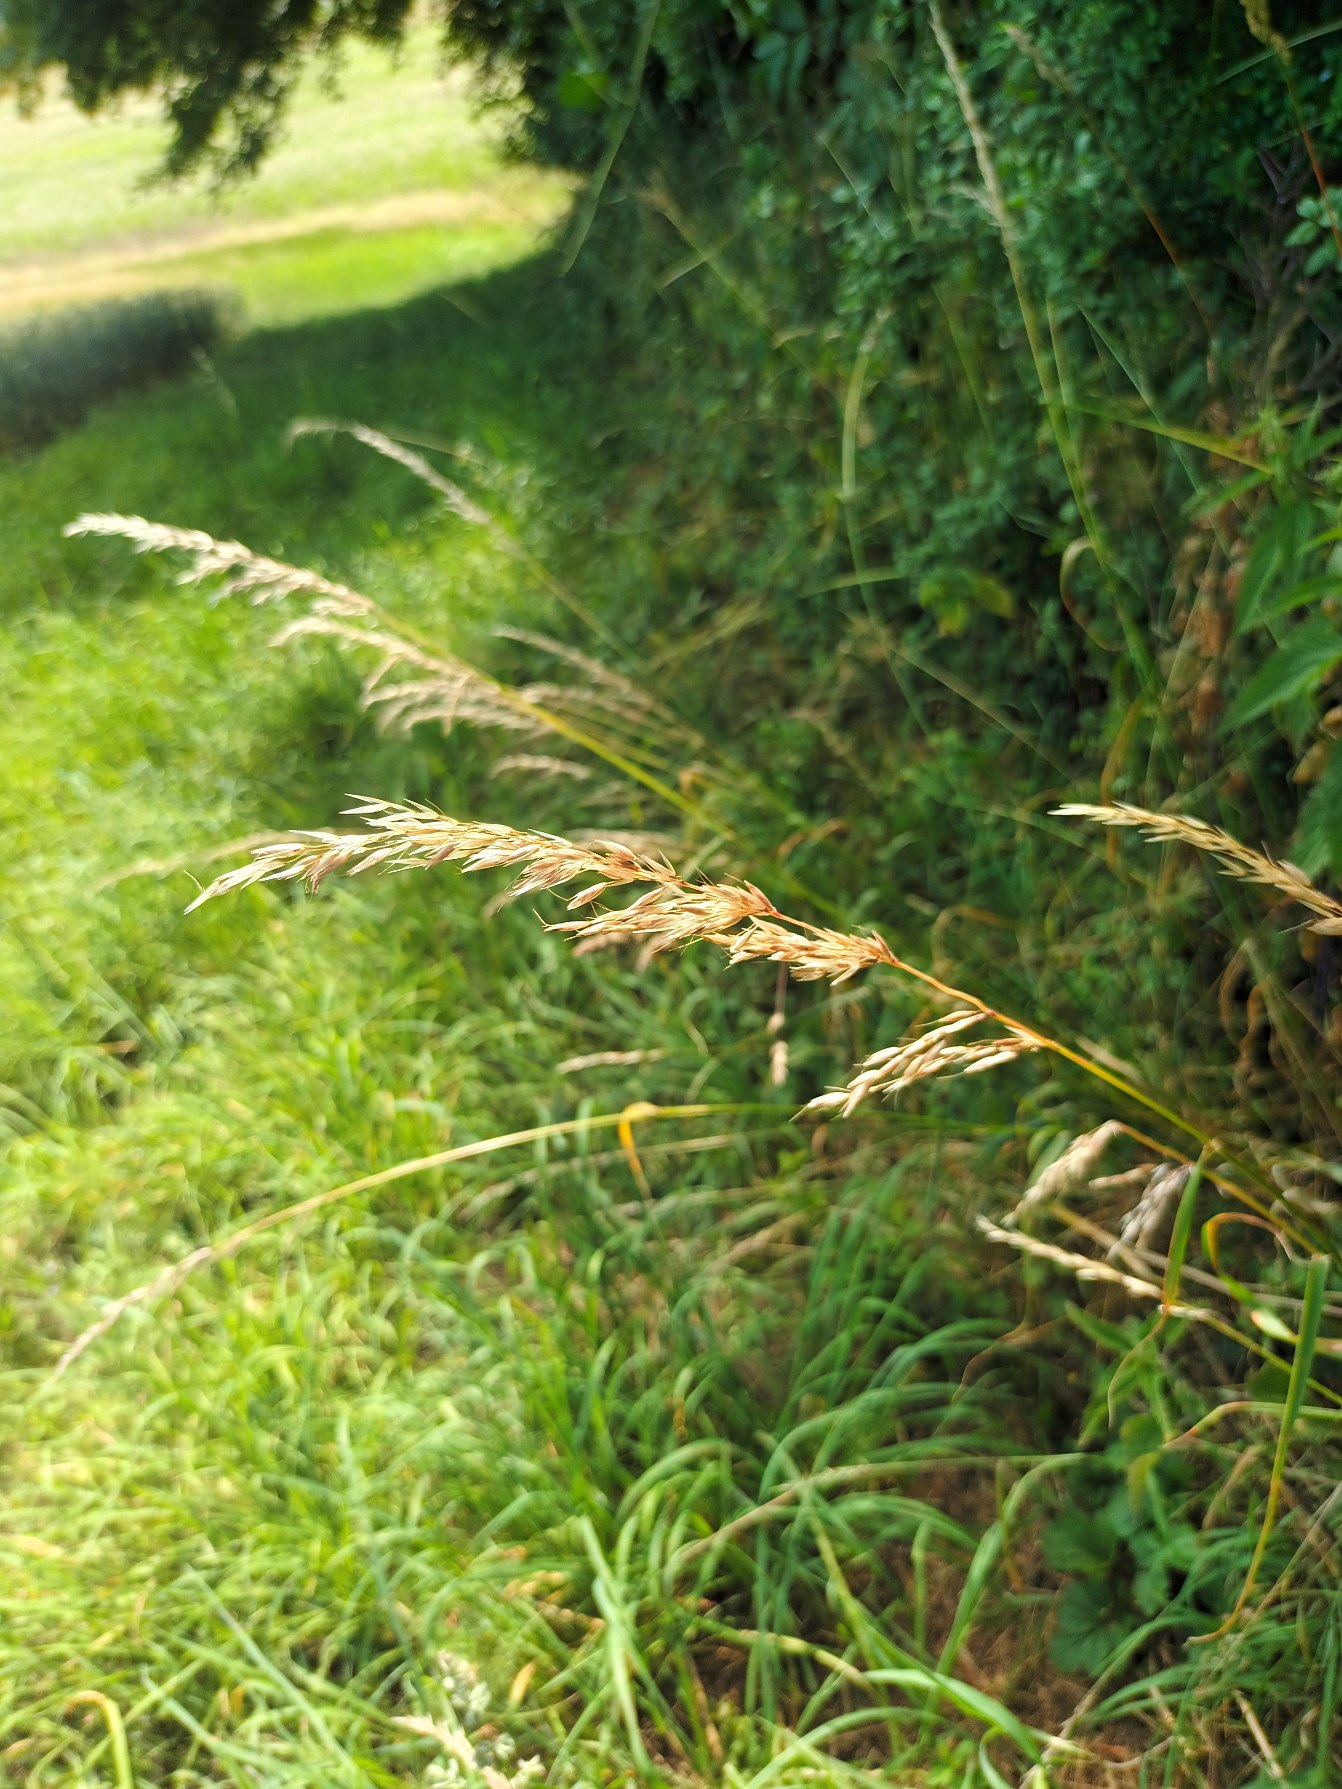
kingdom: Plantae
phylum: Tracheophyta
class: Liliopsida
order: Poales
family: Poaceae
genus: Arrhenatherum
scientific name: Arrhenatherum elatius
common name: Draphavre
